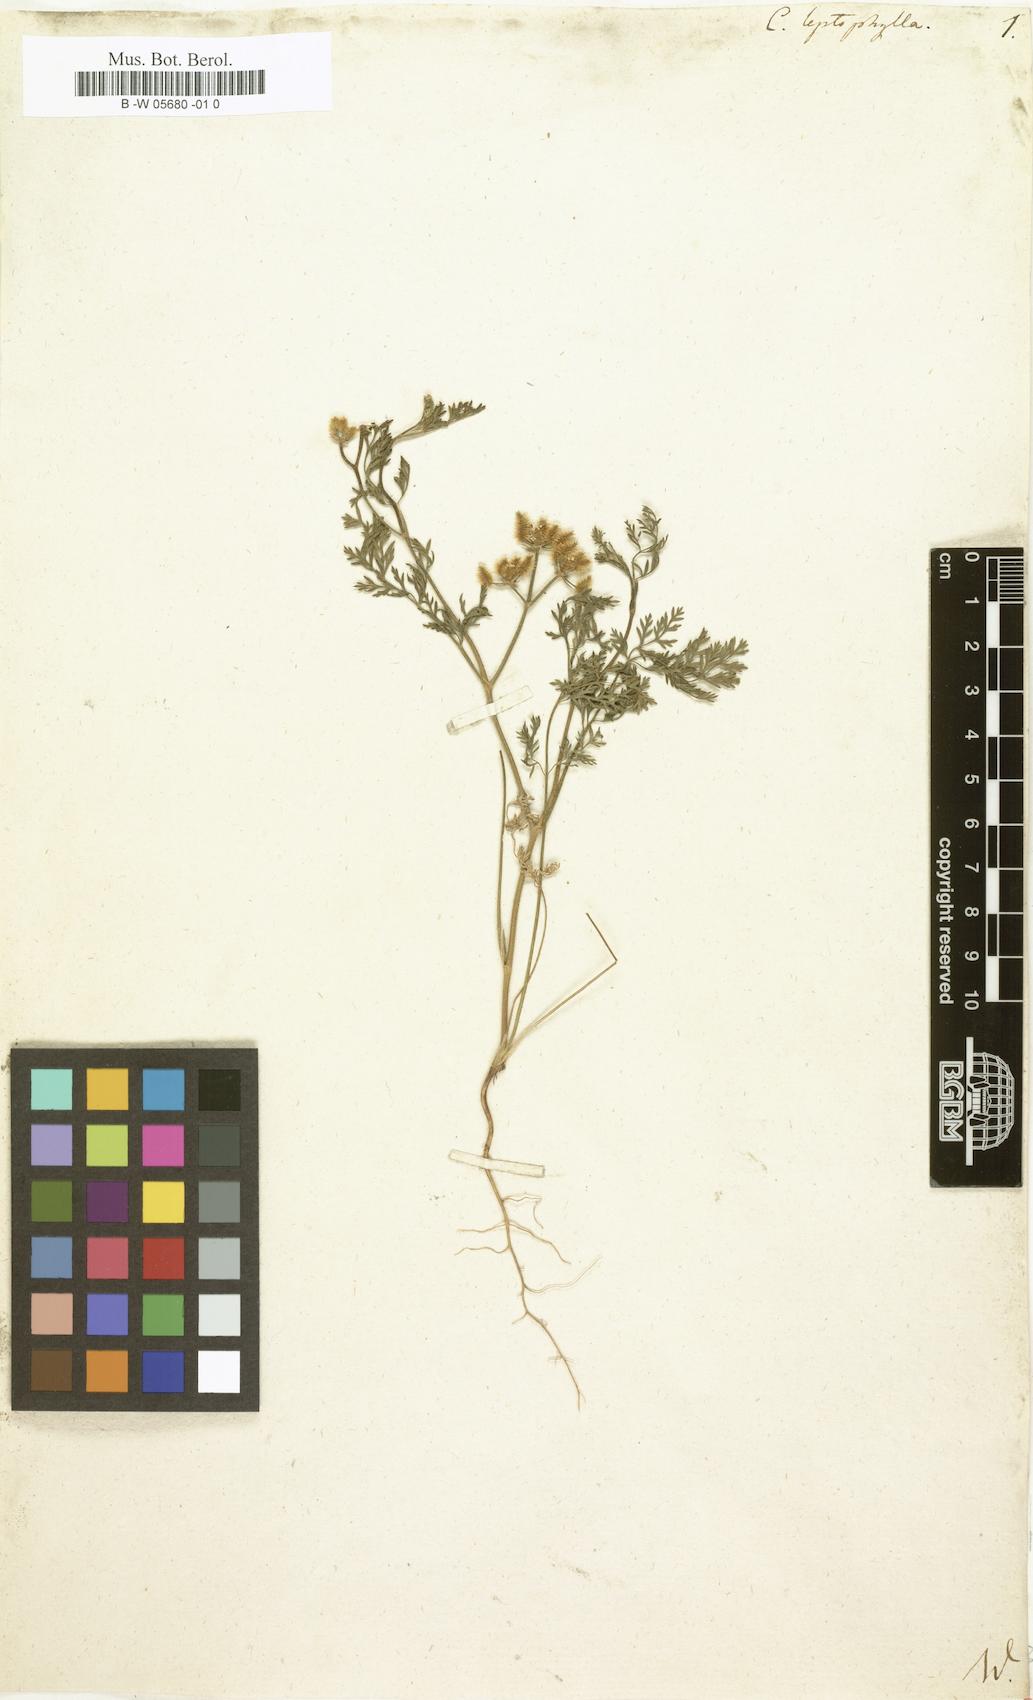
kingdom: Plantae
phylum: Tracheophyta
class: Magnoliopsida
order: Apiales
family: Apiaceae
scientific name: Apiaceae
